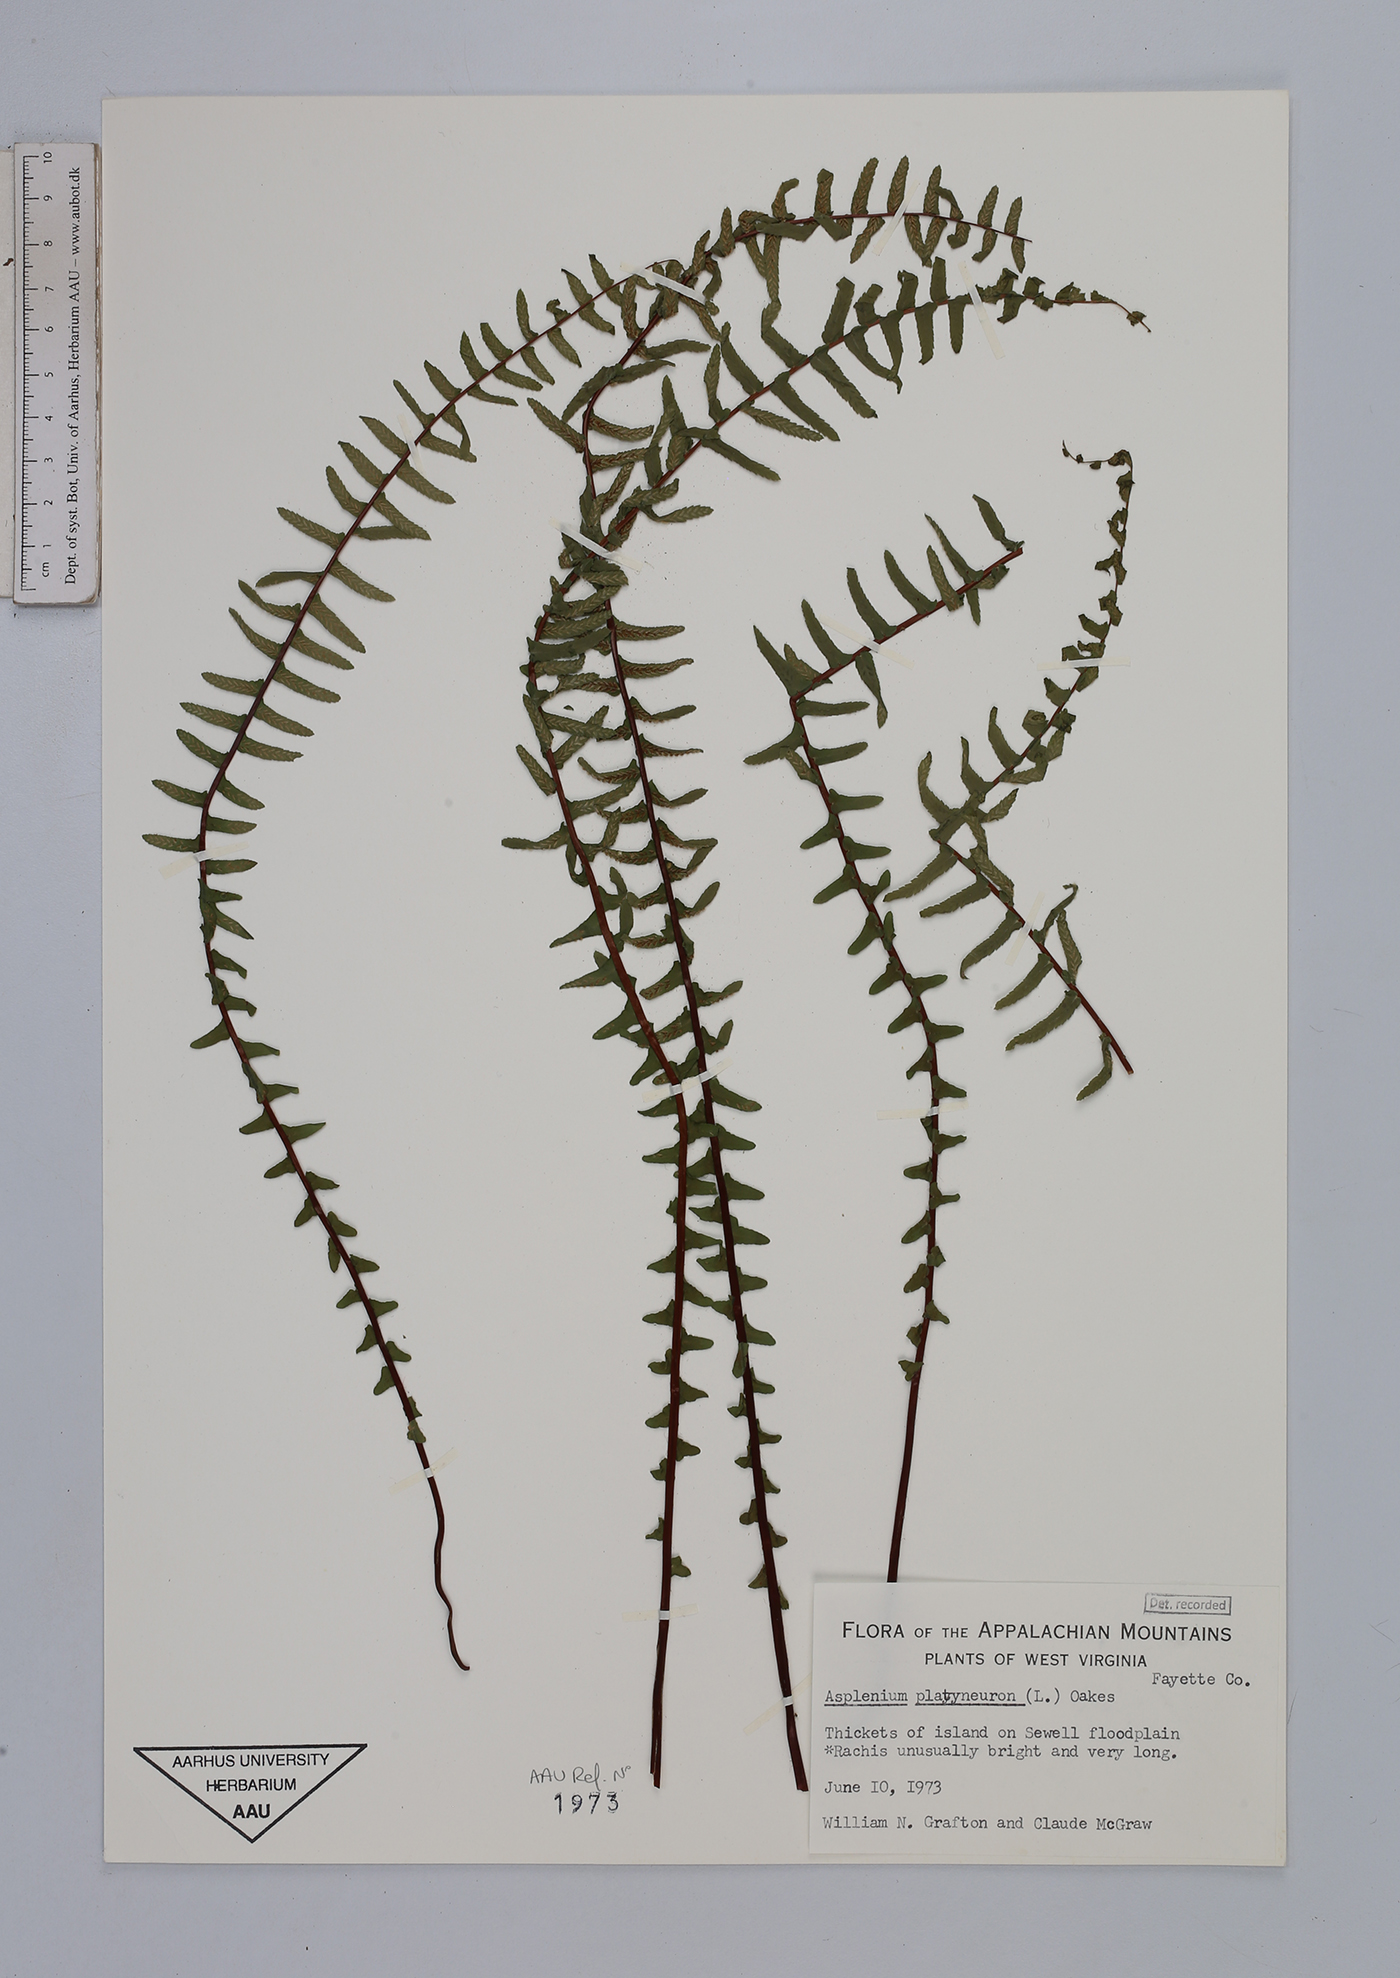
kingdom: Plantae
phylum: Tracheophyta
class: Polypodiopsida
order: Polypodiales
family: Aspleniaceae
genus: Asplenium
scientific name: Asplenium platyneuron
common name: Ebony spleenwort
